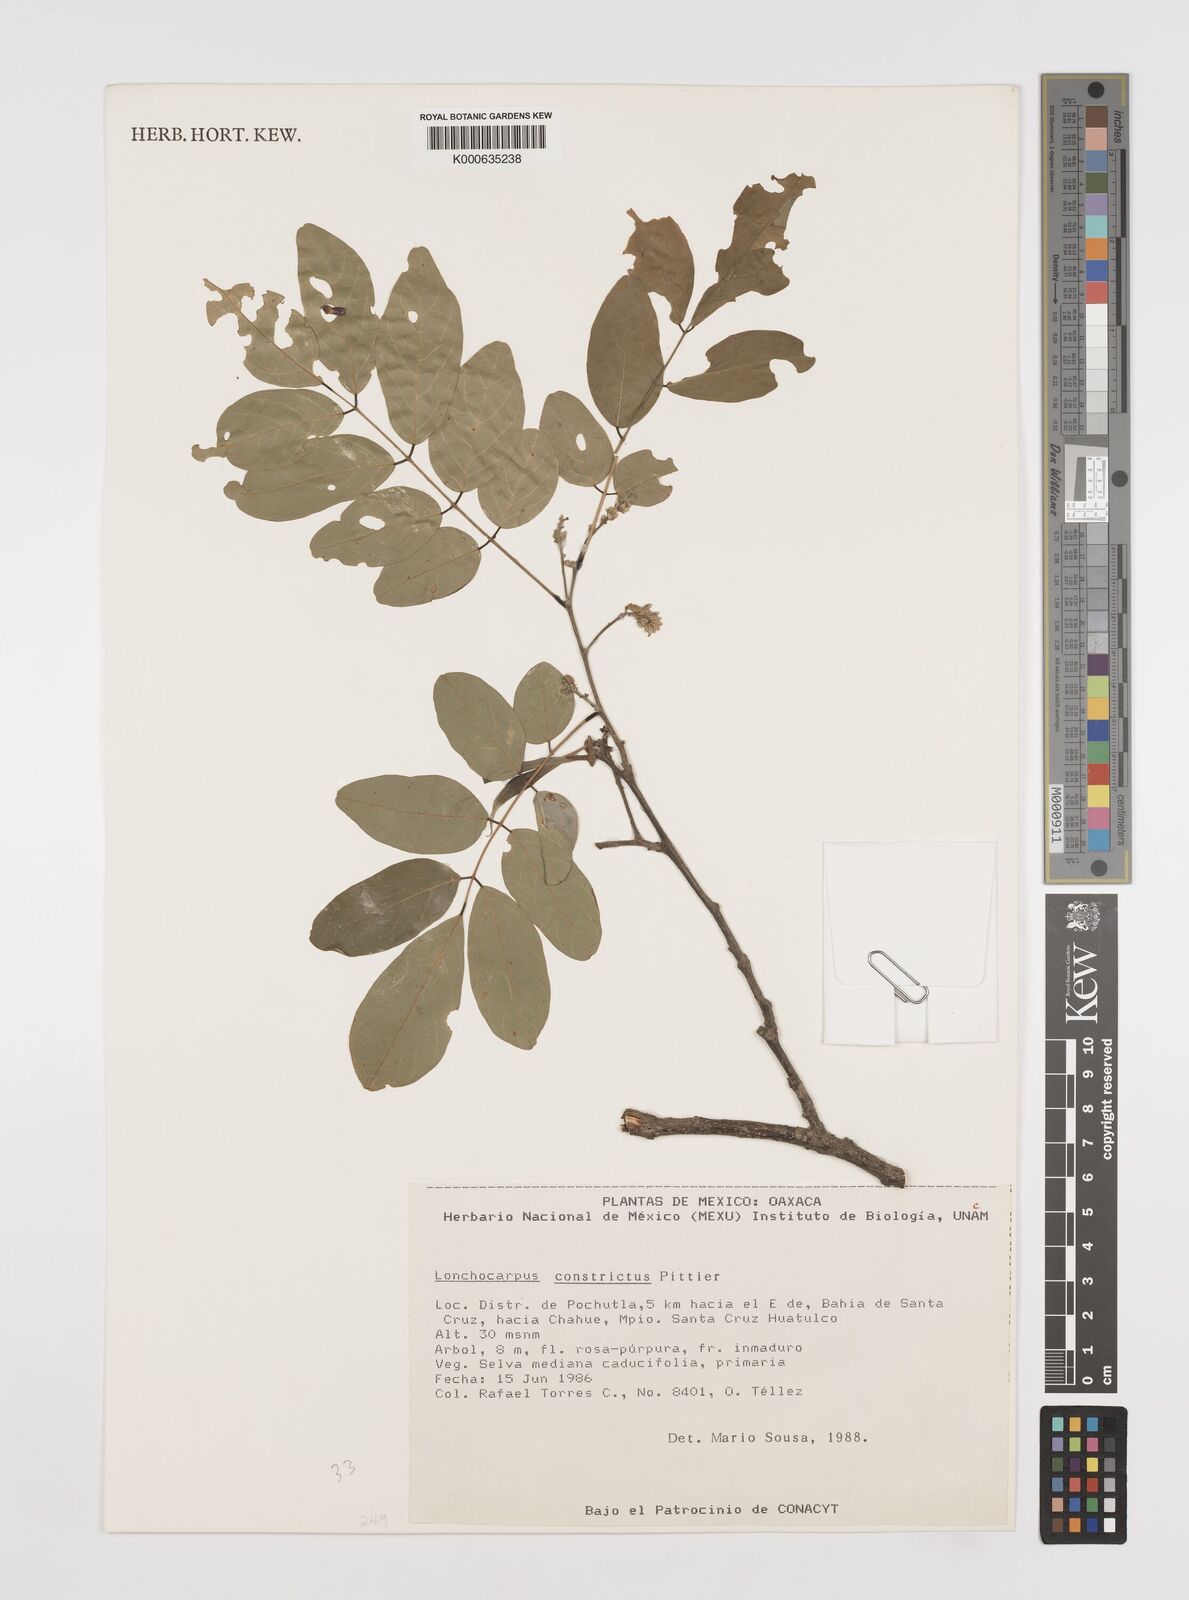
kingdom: Plantae
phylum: Tracheophyta
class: Magnoliopsida
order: Fabales
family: Fabaceae
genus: Lonchocarpus
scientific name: Lonchocarpus constrictus
